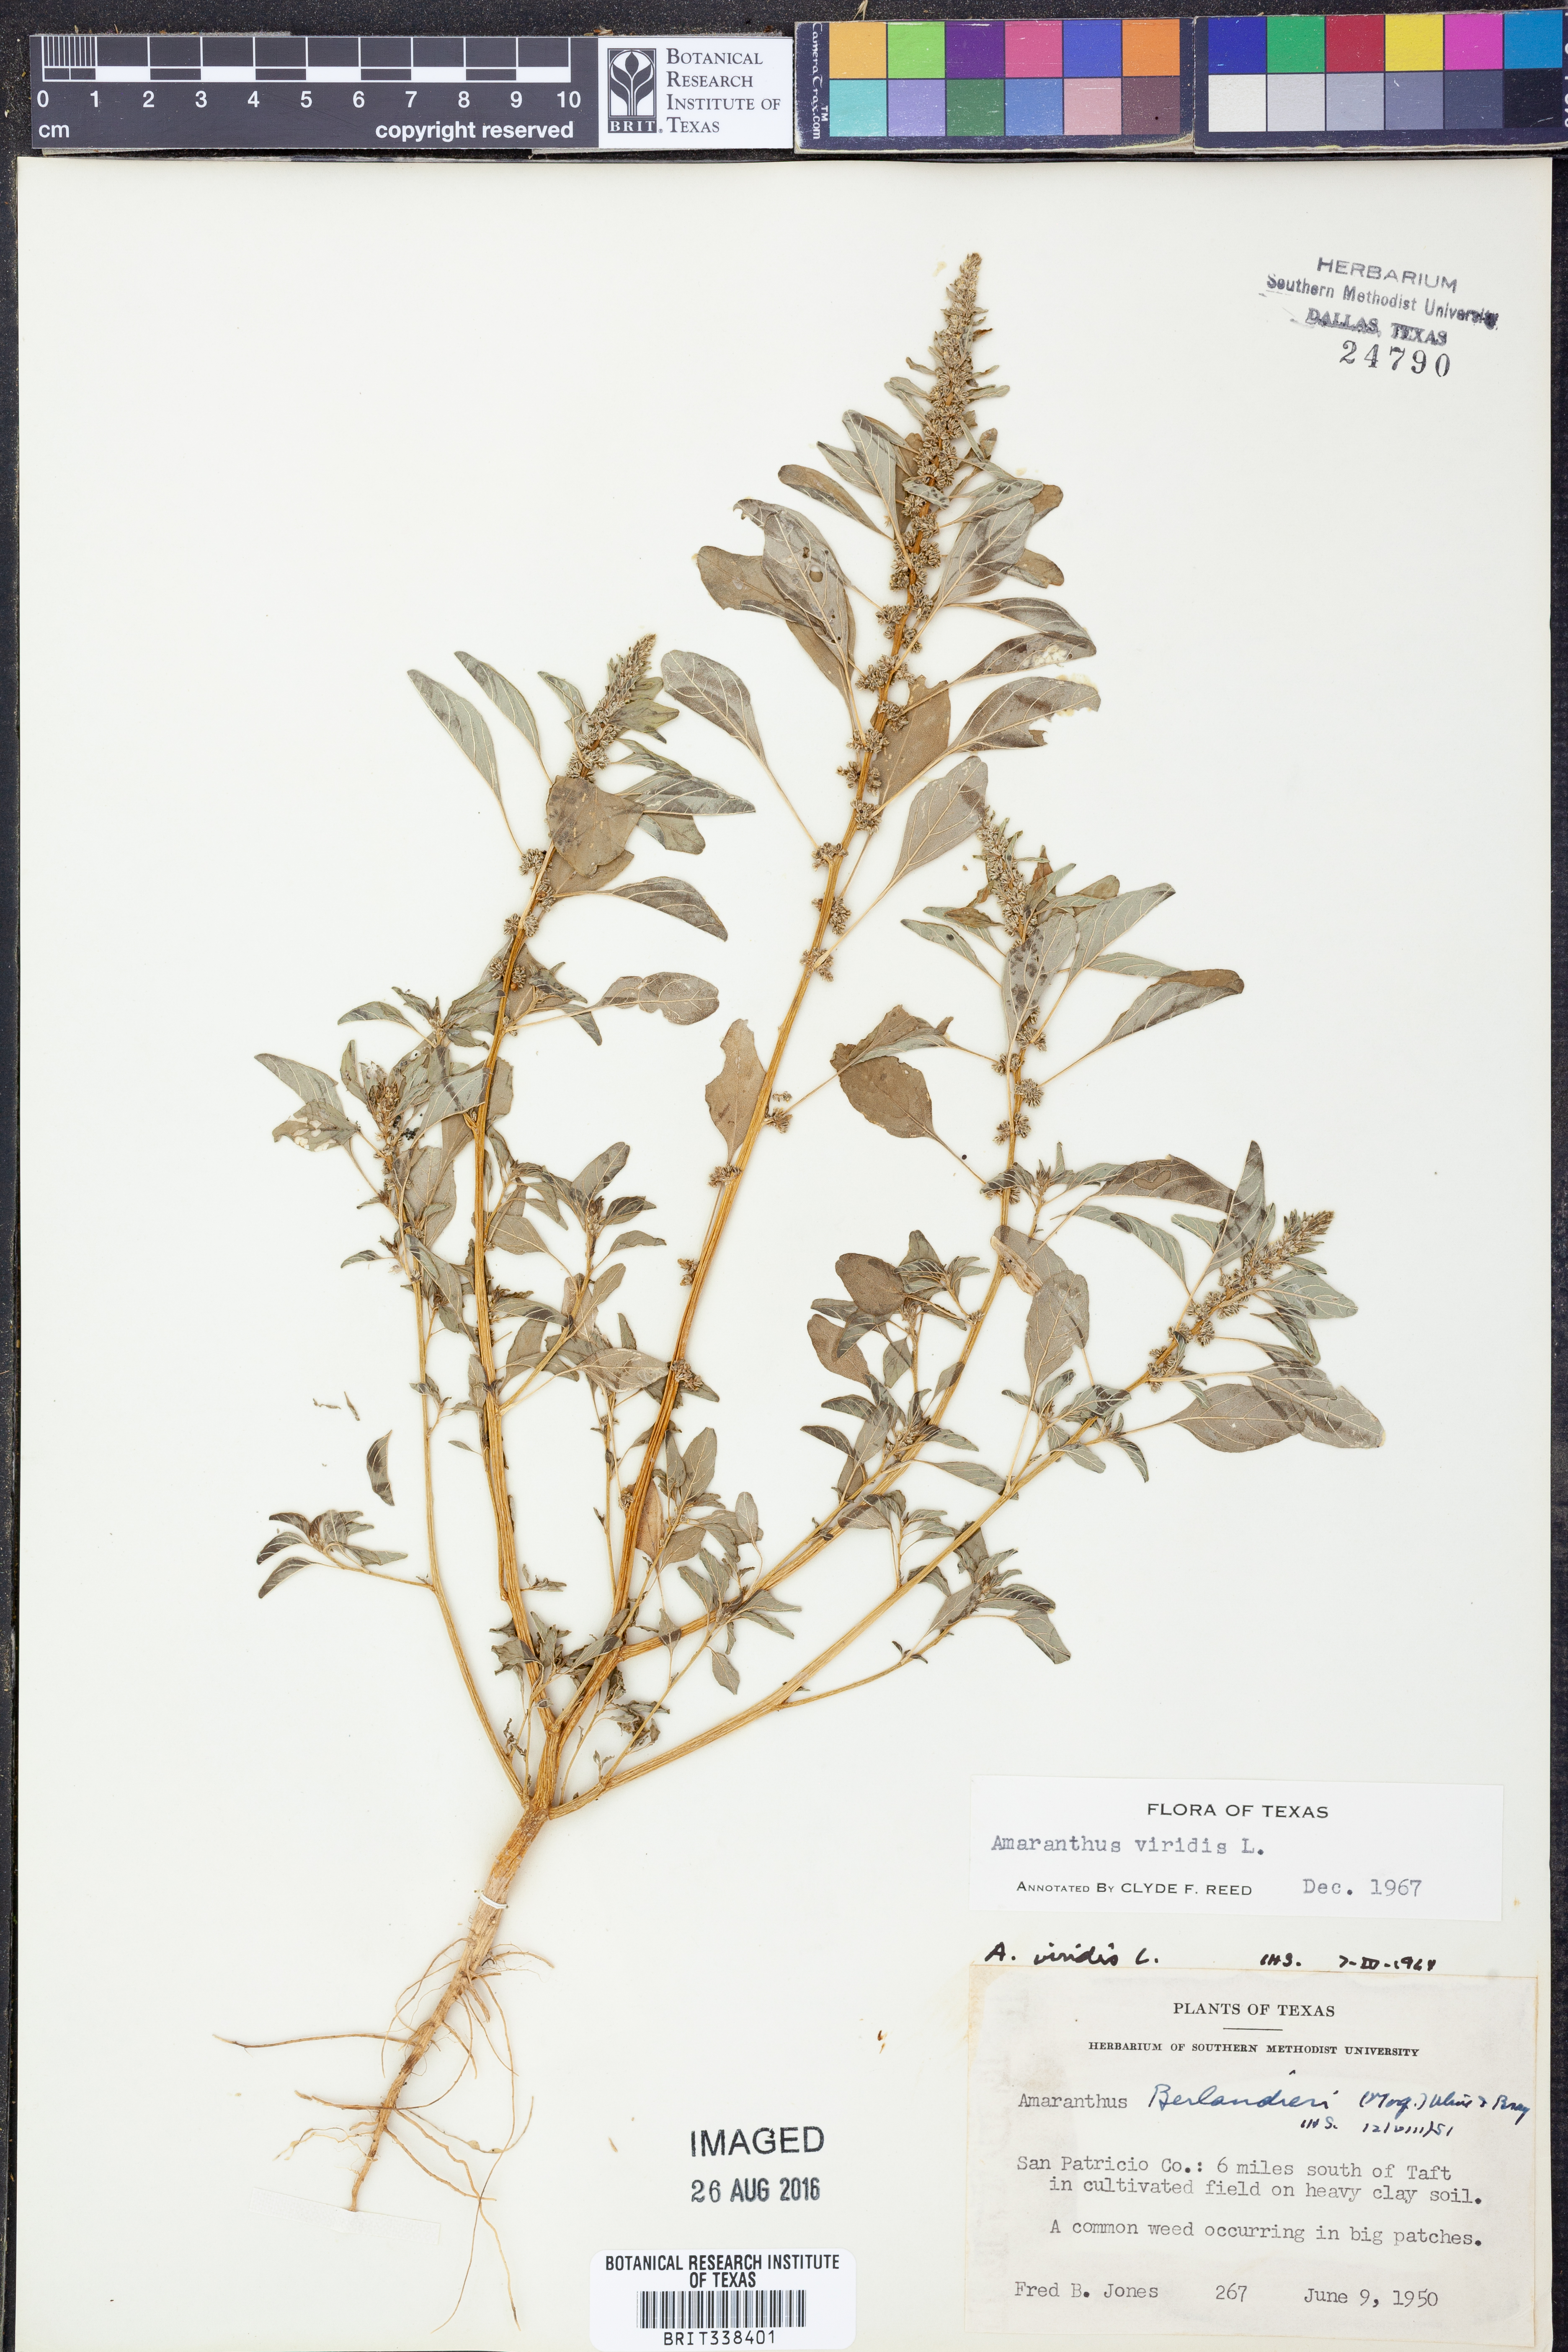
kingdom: Plantae
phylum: Tracheophyta
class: Magnoliopsida
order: Caryophyllales
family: Amaranthaceae
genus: Amaranthus
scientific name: Amaranthus viridis
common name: Slender amaranth
